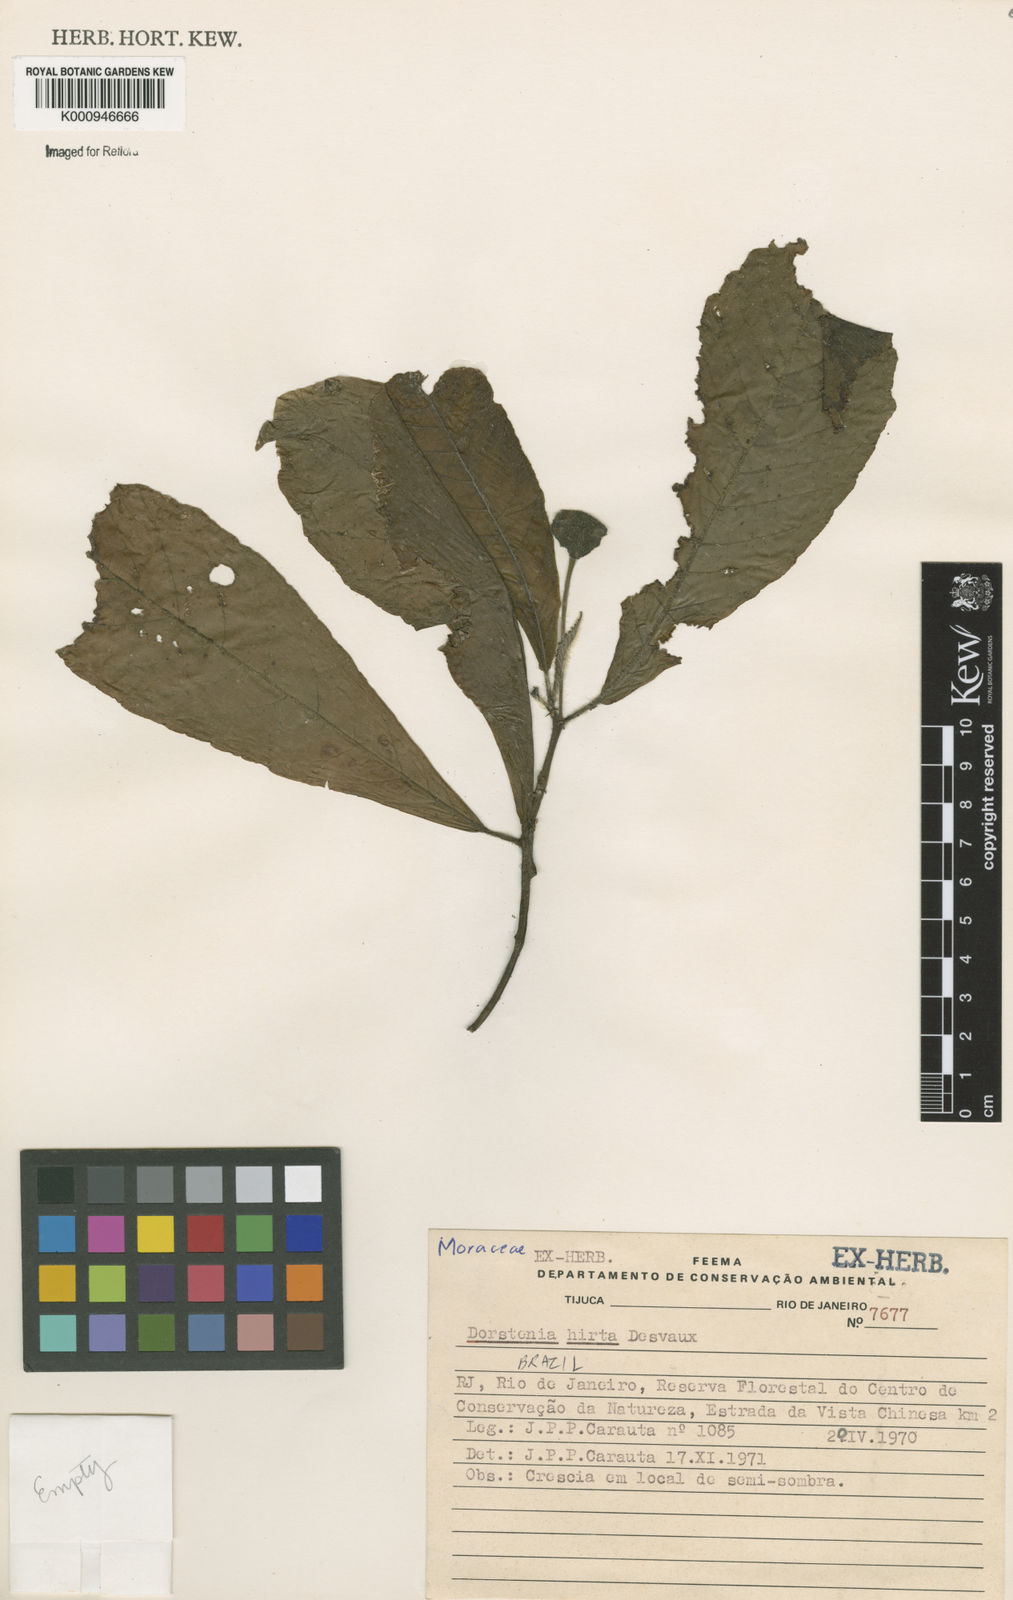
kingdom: Plantae
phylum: Tracheophyta
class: Magnoliopsida
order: Rosales
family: Moraceae
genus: Dorstenia
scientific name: Dorstenia hirta
